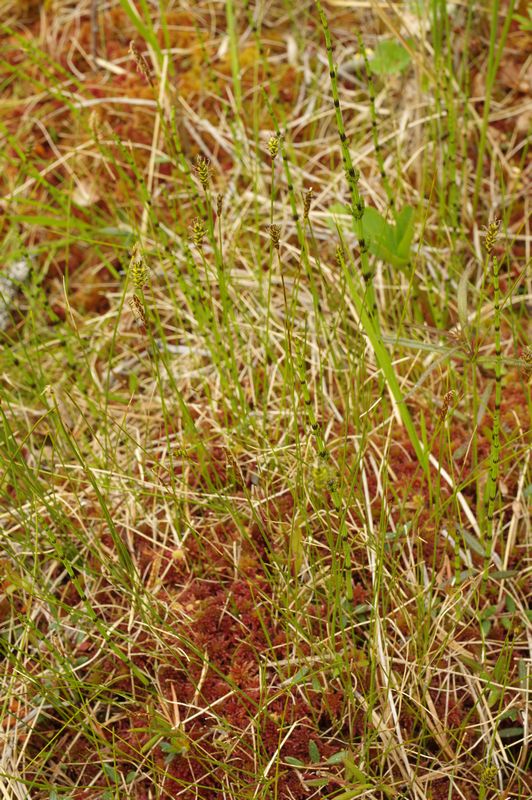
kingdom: Plantae
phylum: Tracheophyta
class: Liliopsida
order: Poales
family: Cyperaceae
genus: Carex
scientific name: Carex dioica
